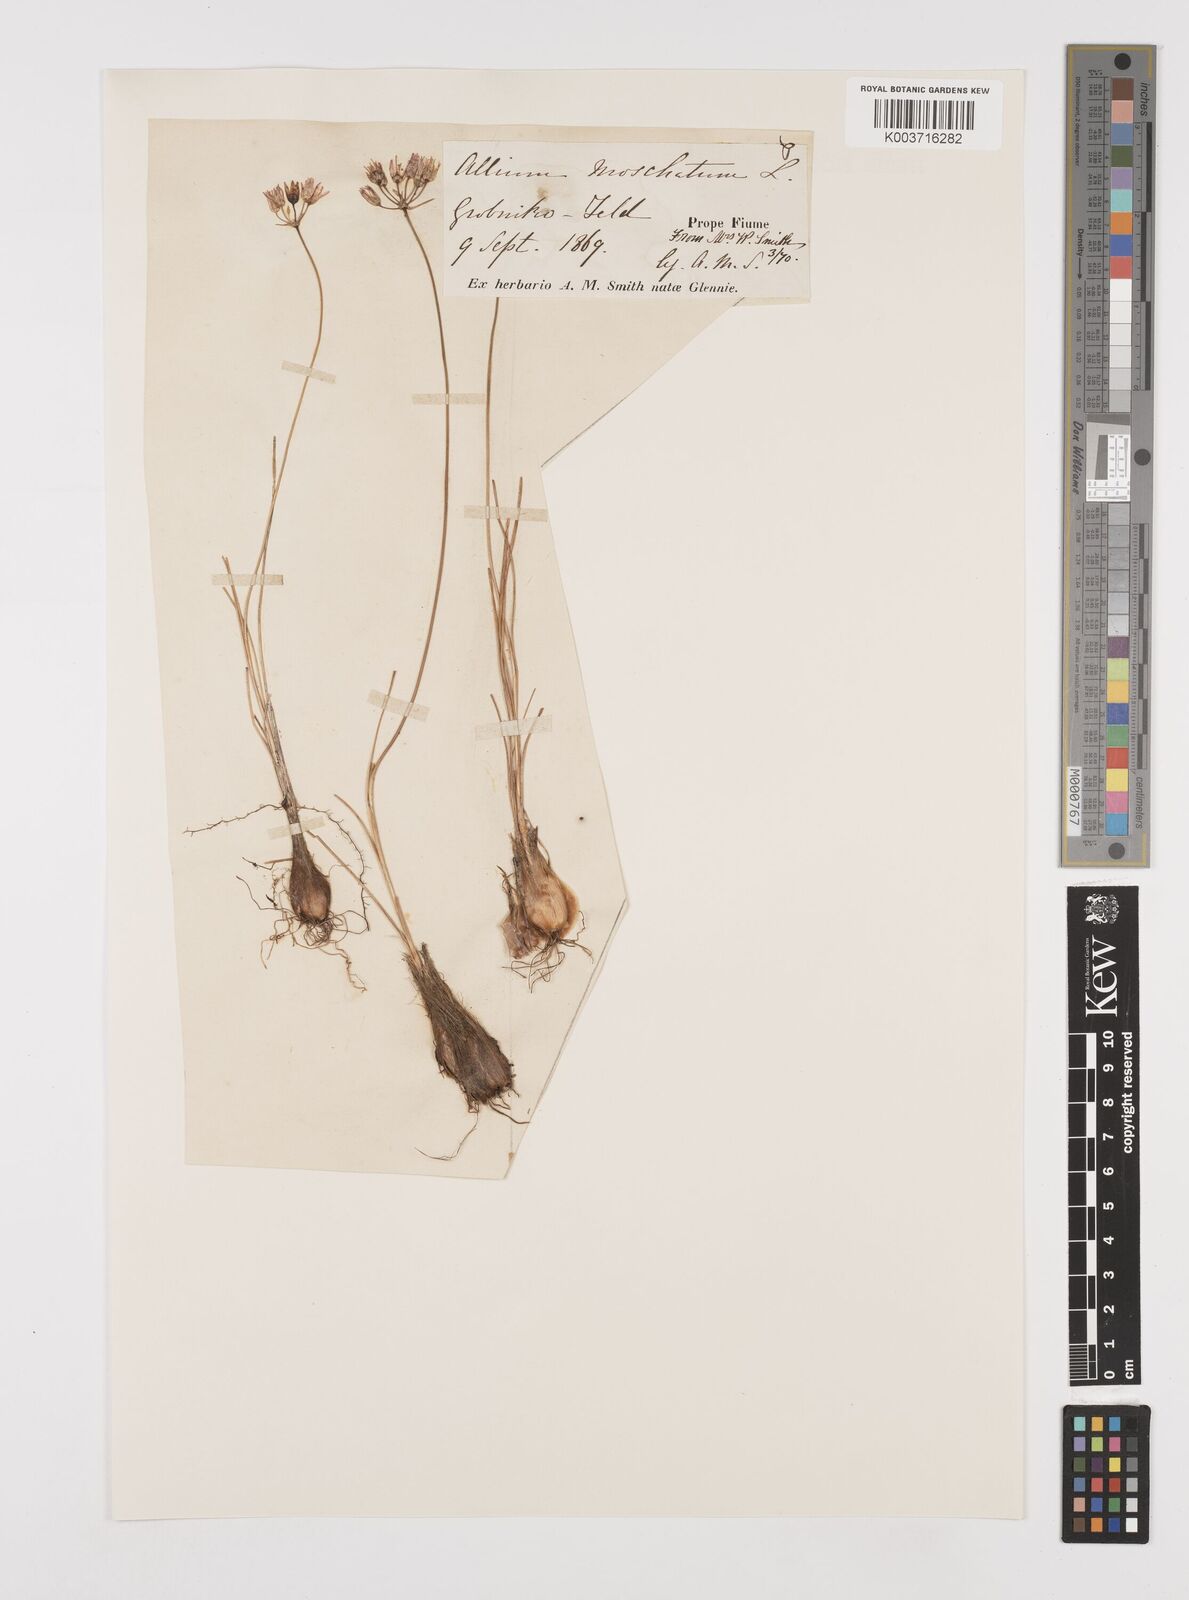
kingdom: Plantae
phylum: Tracheophyta
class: Liliopsida
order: Asparagales
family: Amaryllidaceae
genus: Allium
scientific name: Allium moschatum
